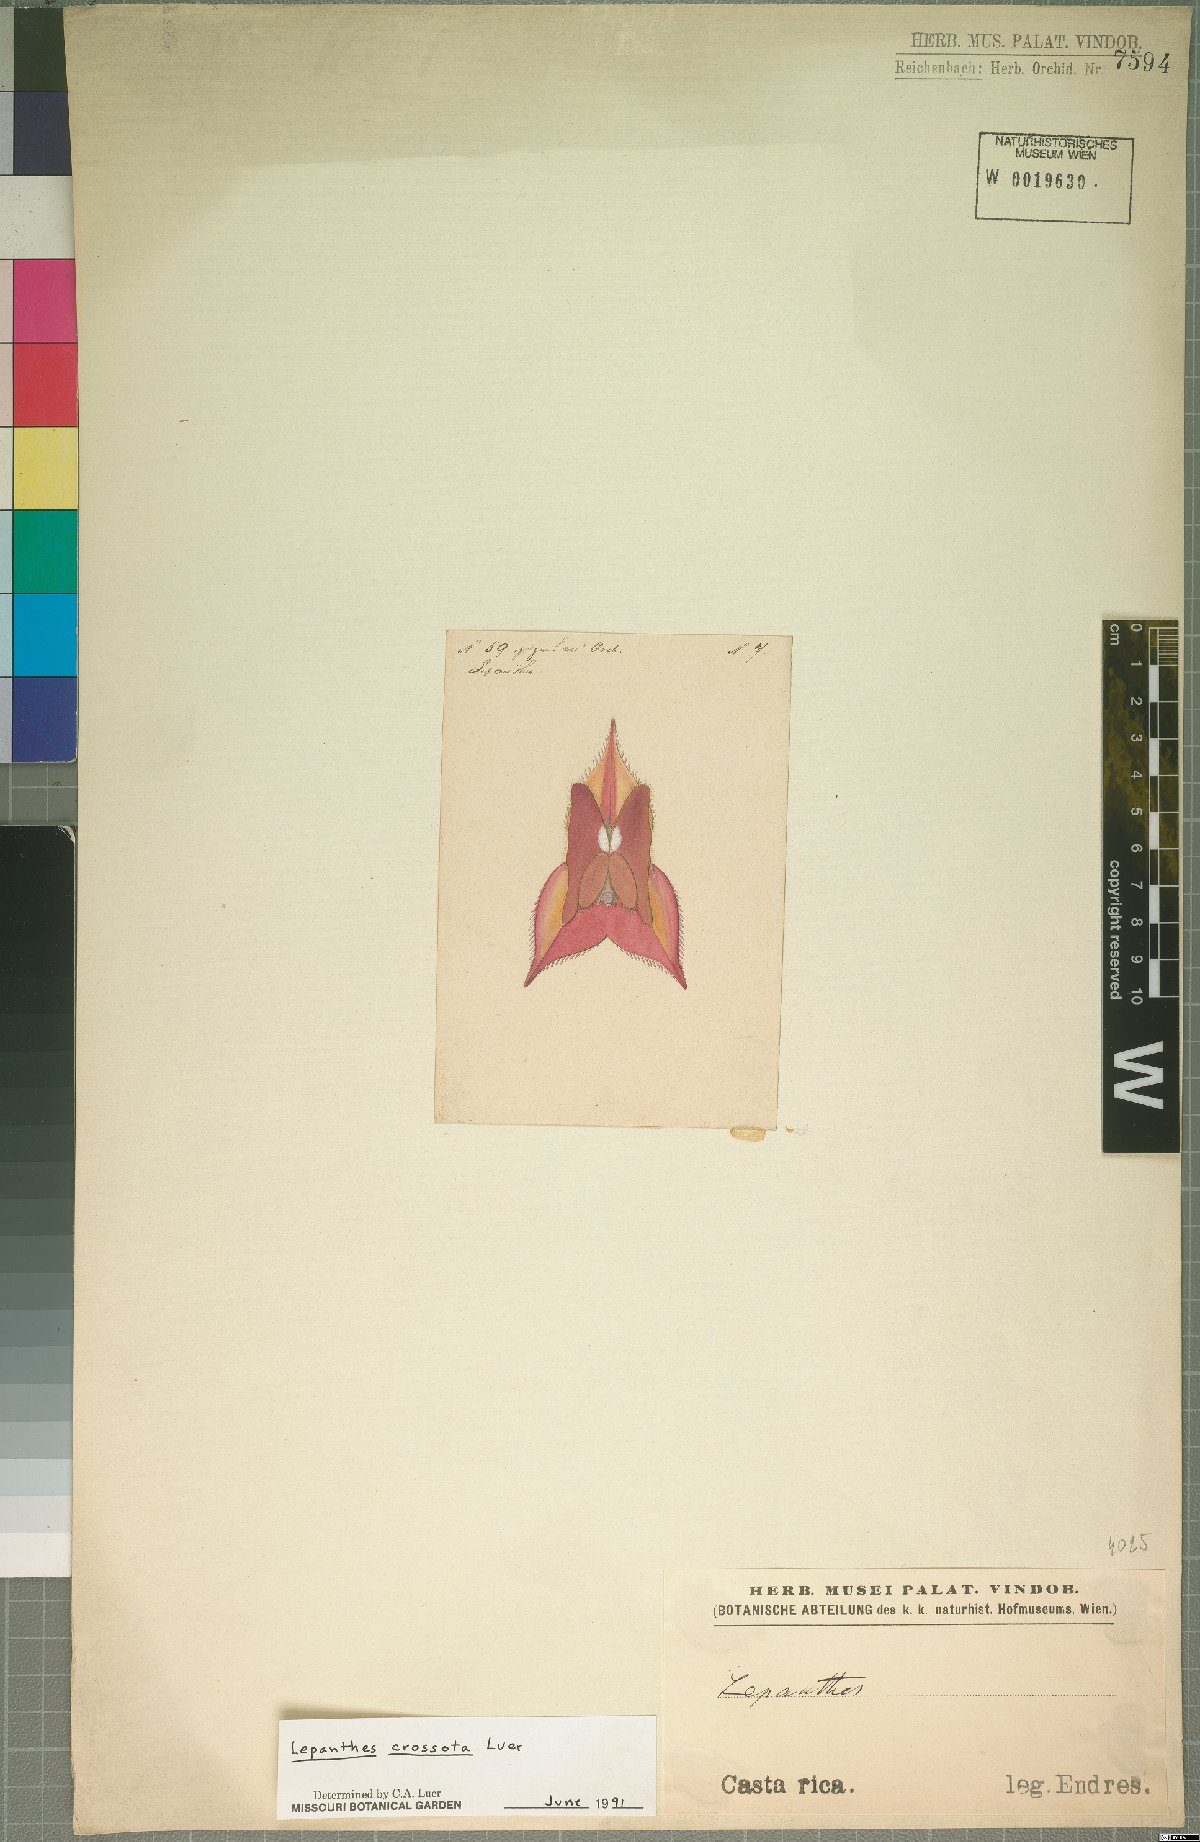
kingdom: Plantae
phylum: Tracheophyta
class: Liliopsida
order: Asparagales
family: Orchidaceae
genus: Lepanthes
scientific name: Lepanthes jimenezii
